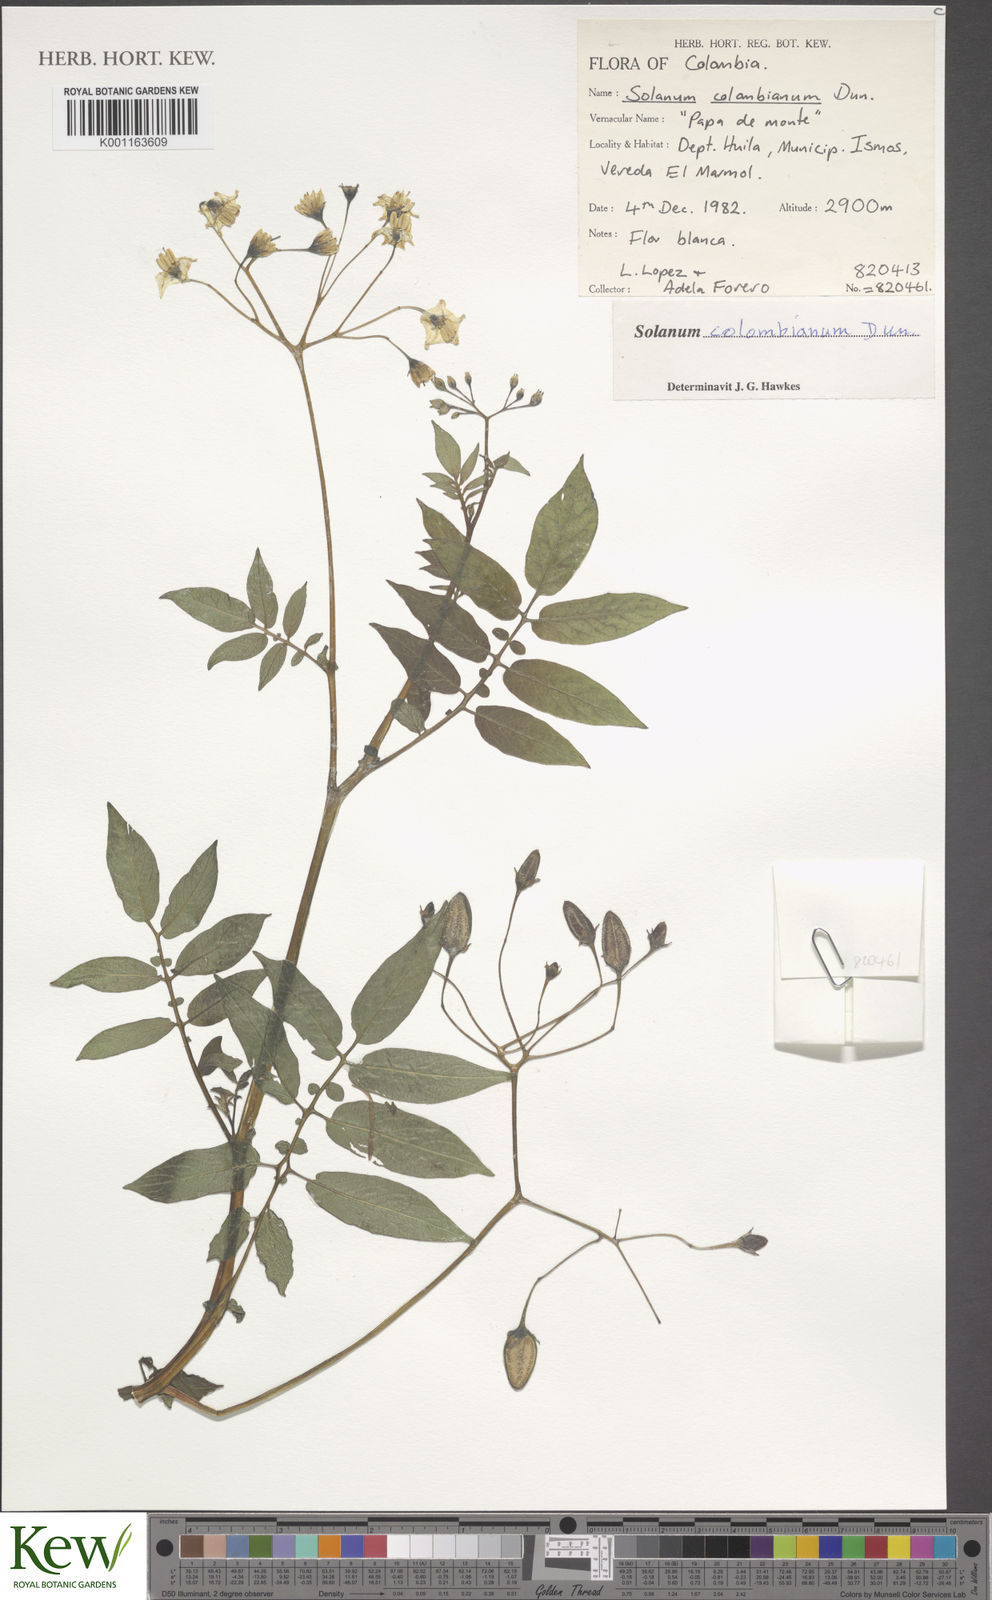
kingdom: Plantae
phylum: Tracheophyta
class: Magnoliopsida
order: Solanales
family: Solanaceae
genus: Solanum
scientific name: Solanum colombianum
